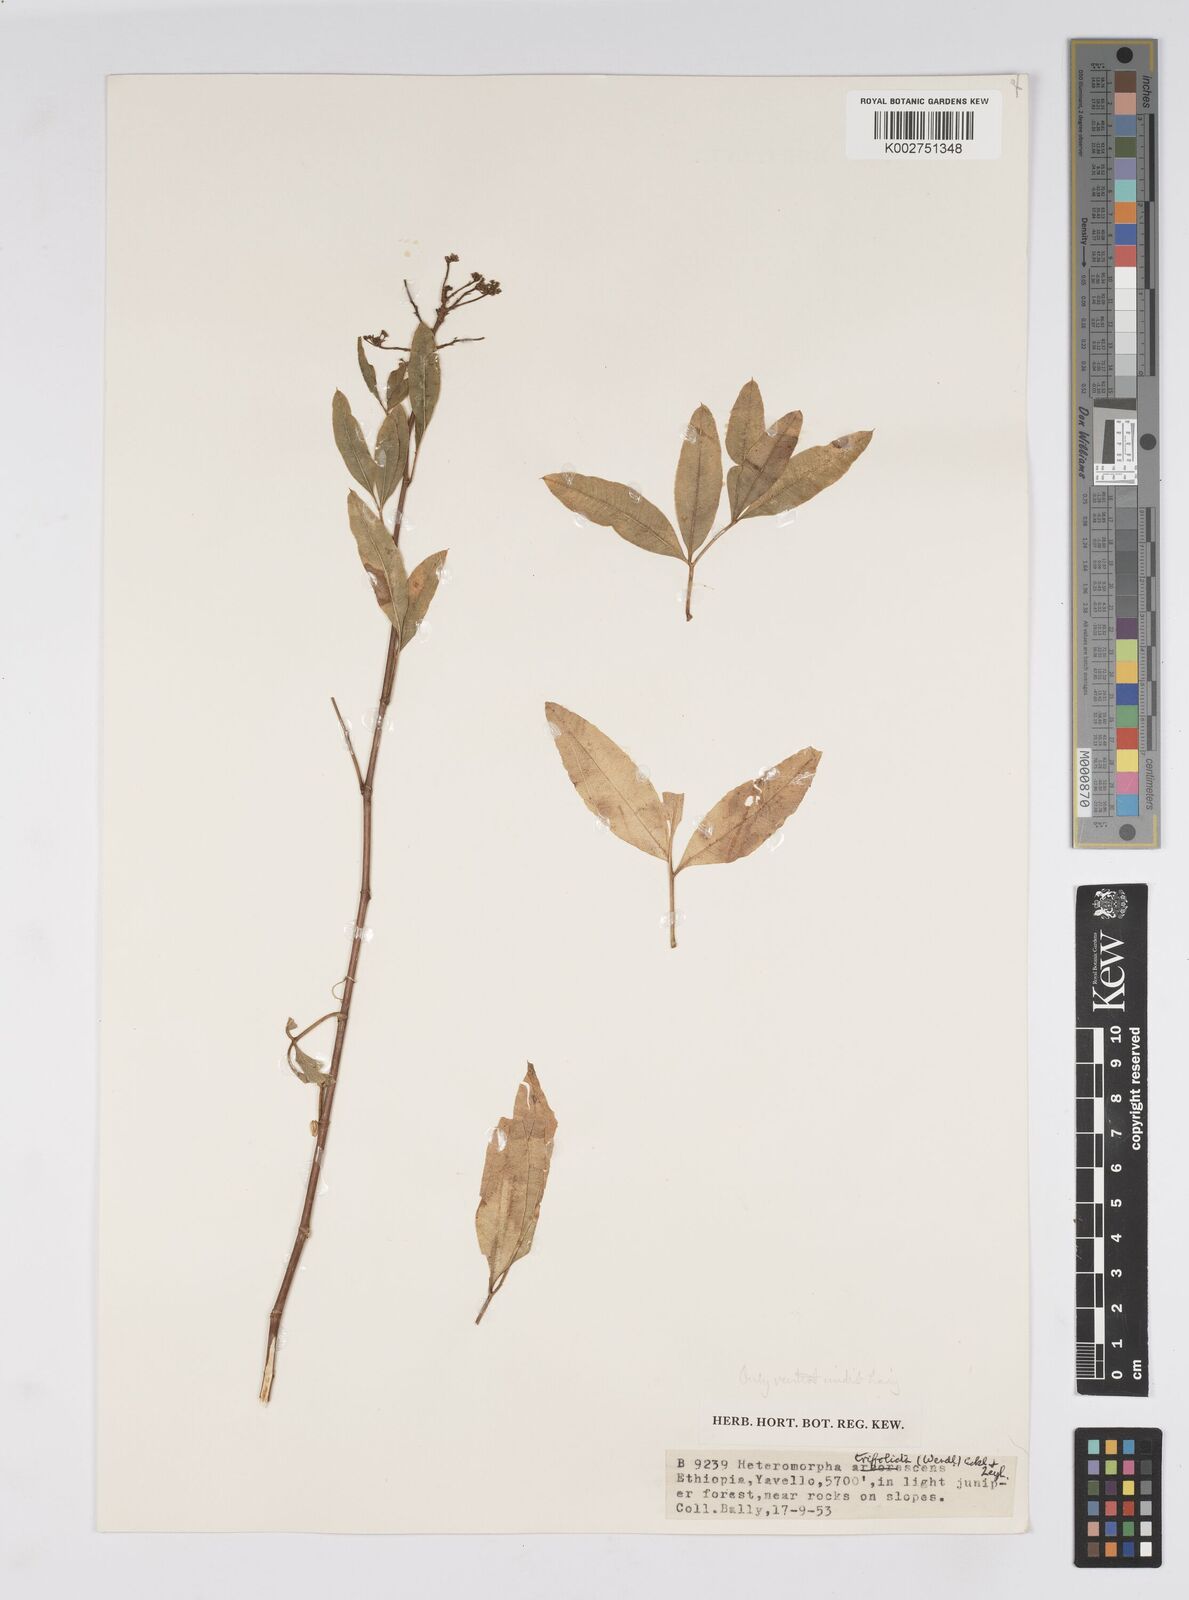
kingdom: Plantae
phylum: Tracheophyta
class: Magnoliopsida
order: Apiales
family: Apiaceae
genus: Heteromorpha
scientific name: Heteromorpha
